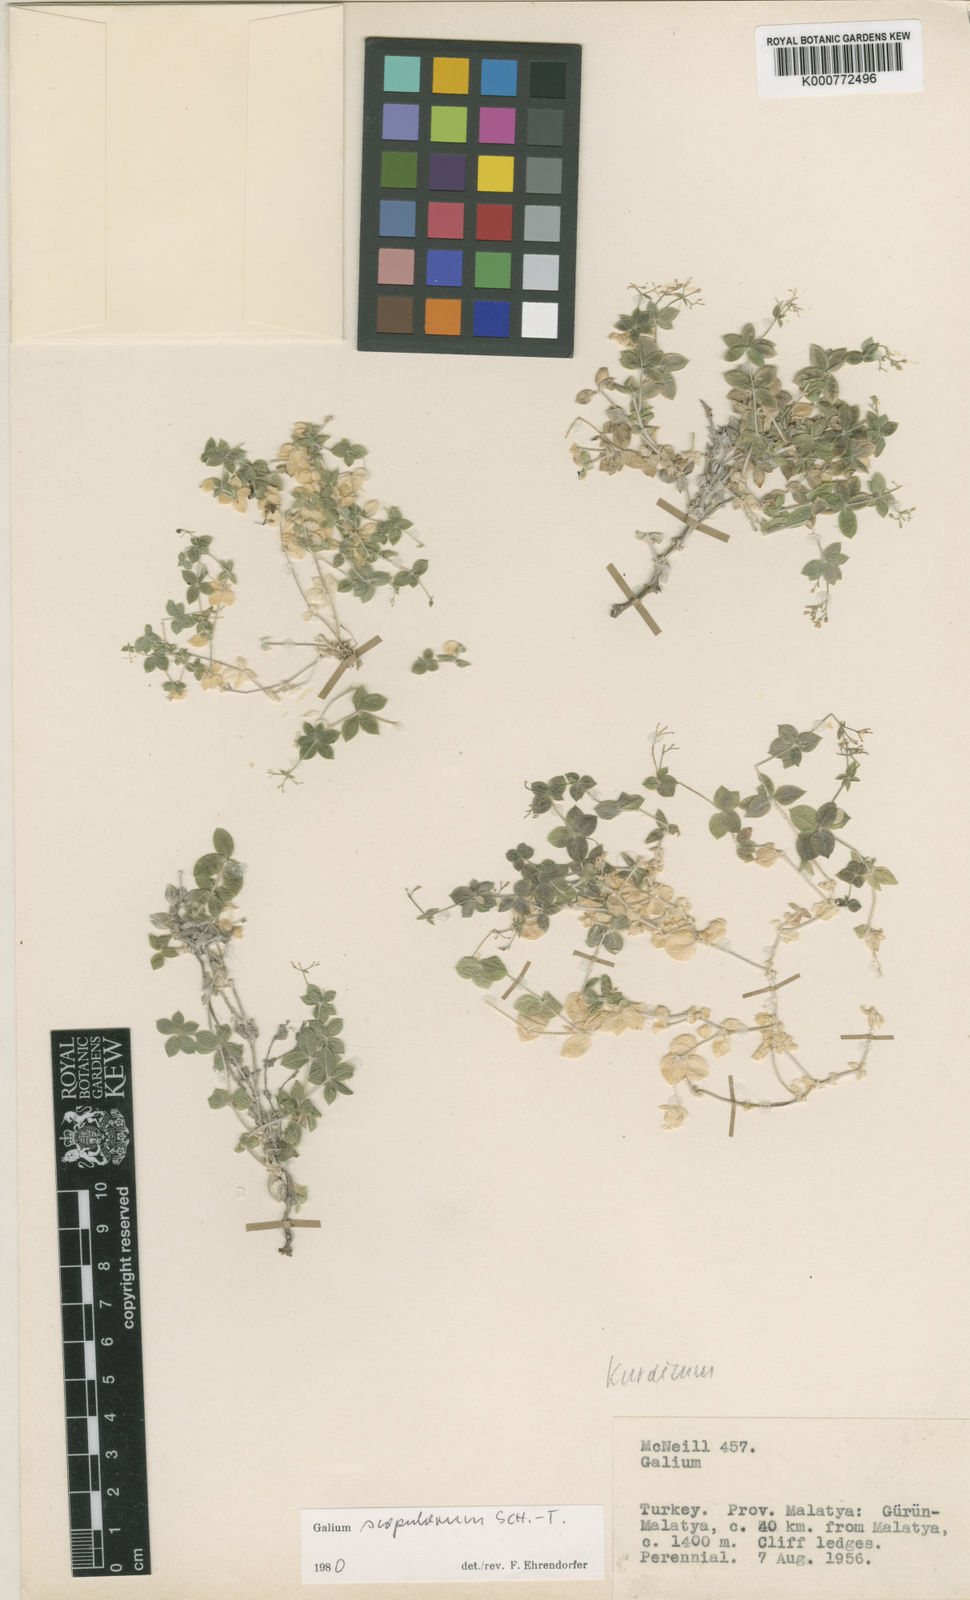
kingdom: Plantae
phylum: Tracheophyta
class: Magnoliopsida
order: Gentianales
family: Rubiaceae
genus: Galium
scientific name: Galium
